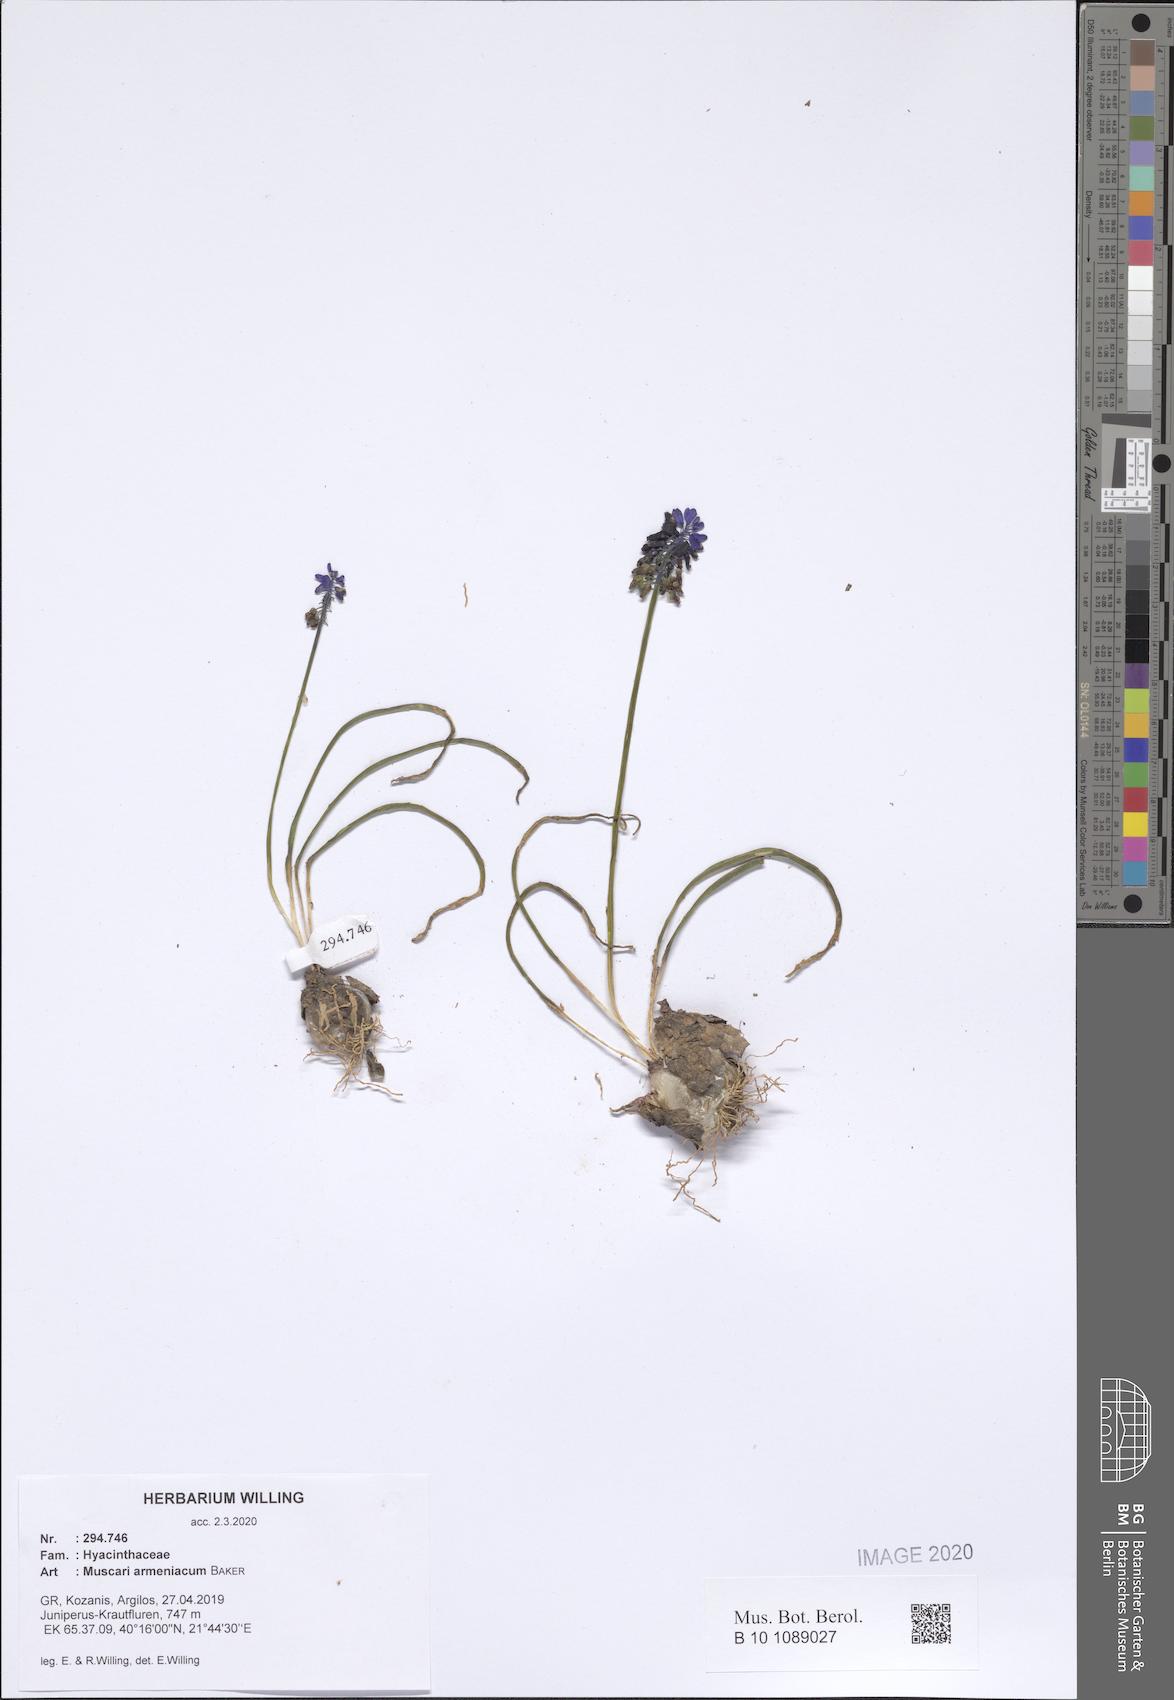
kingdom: Plantae
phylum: Tracheophyta
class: Liliopsida
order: Asparagales
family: Asparagaceae
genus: Muscari
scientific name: Muscari armeniacum
